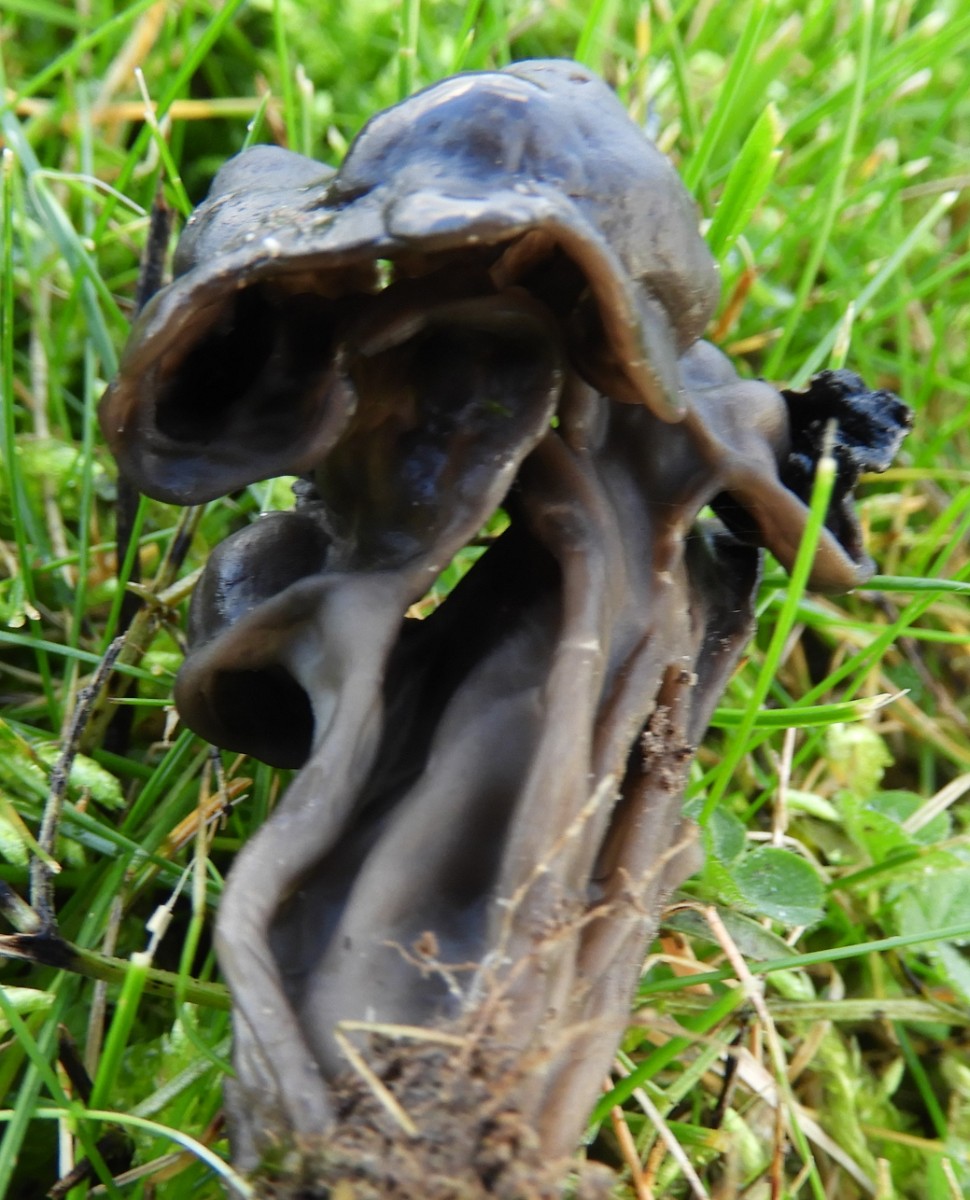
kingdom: Fungi
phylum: Ascomycota
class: Pezizomycetes
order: Pezizales
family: Helvellaceae
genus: Helvella
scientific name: Helvella lacunosa
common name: grubet foldhat
